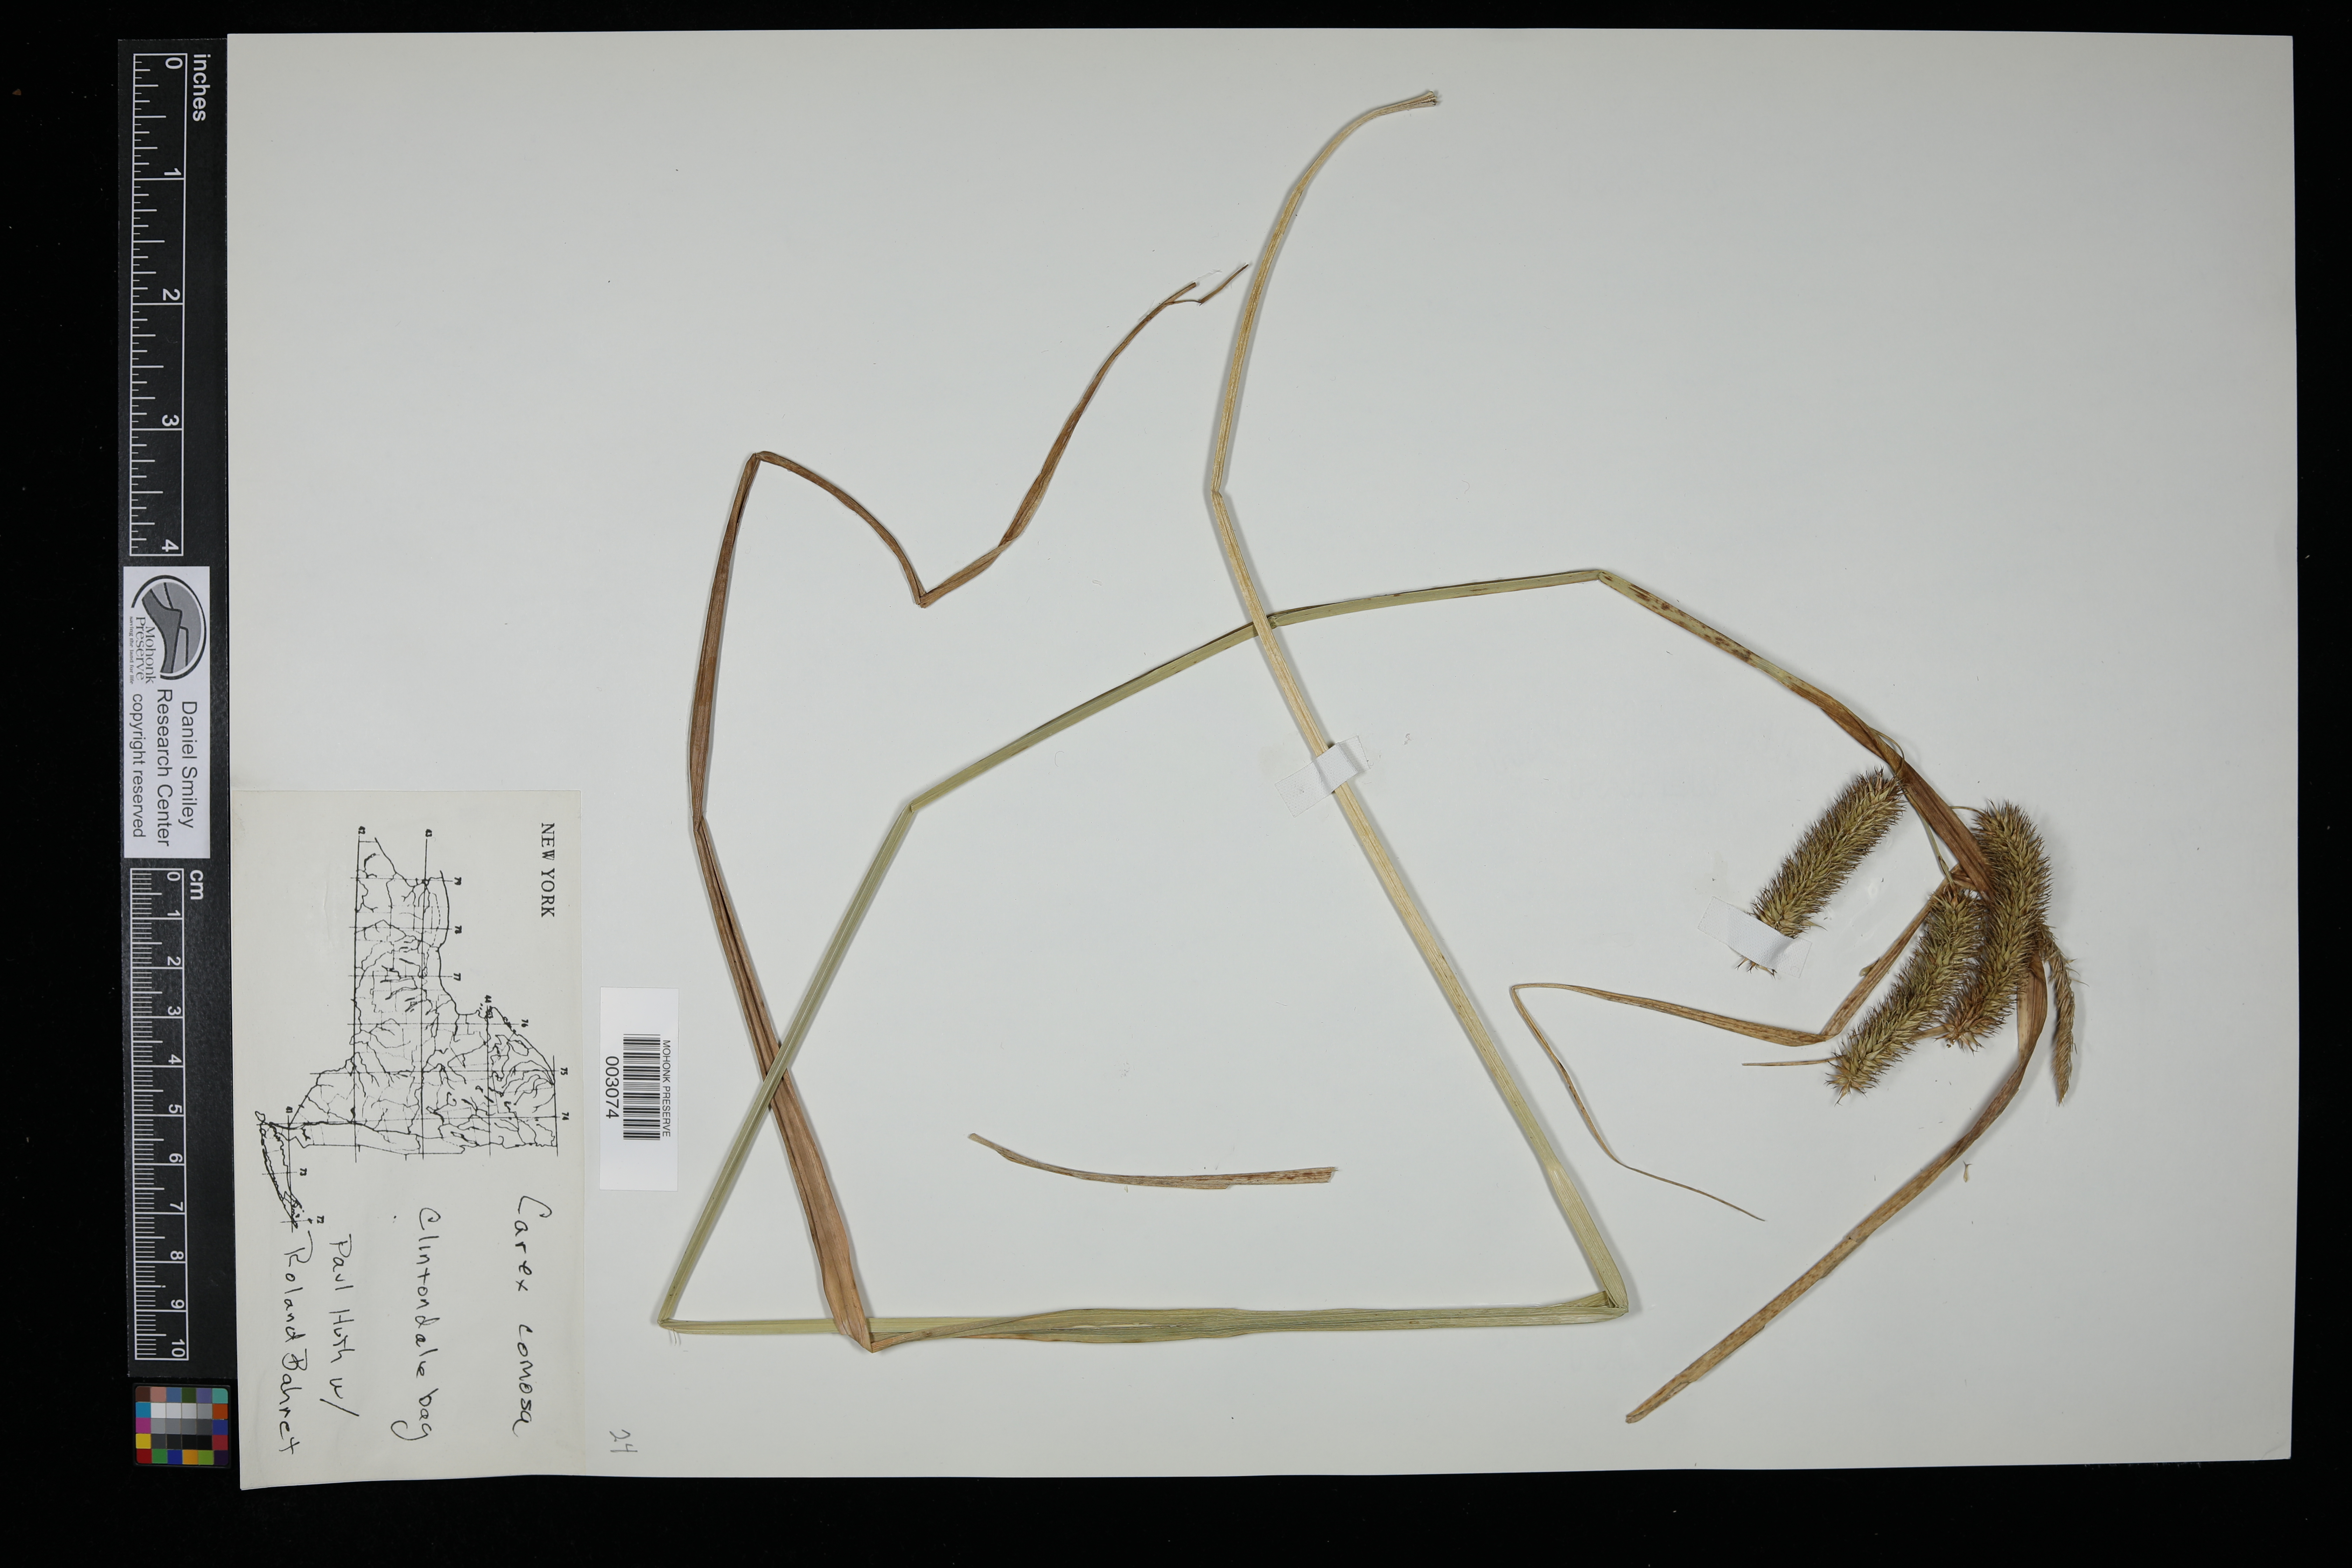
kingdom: Plantae
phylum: Tracheophyta
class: Liliopsida
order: Poales
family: Cyperaceae
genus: Carex
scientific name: Carex comosa
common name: Bristly sedge
